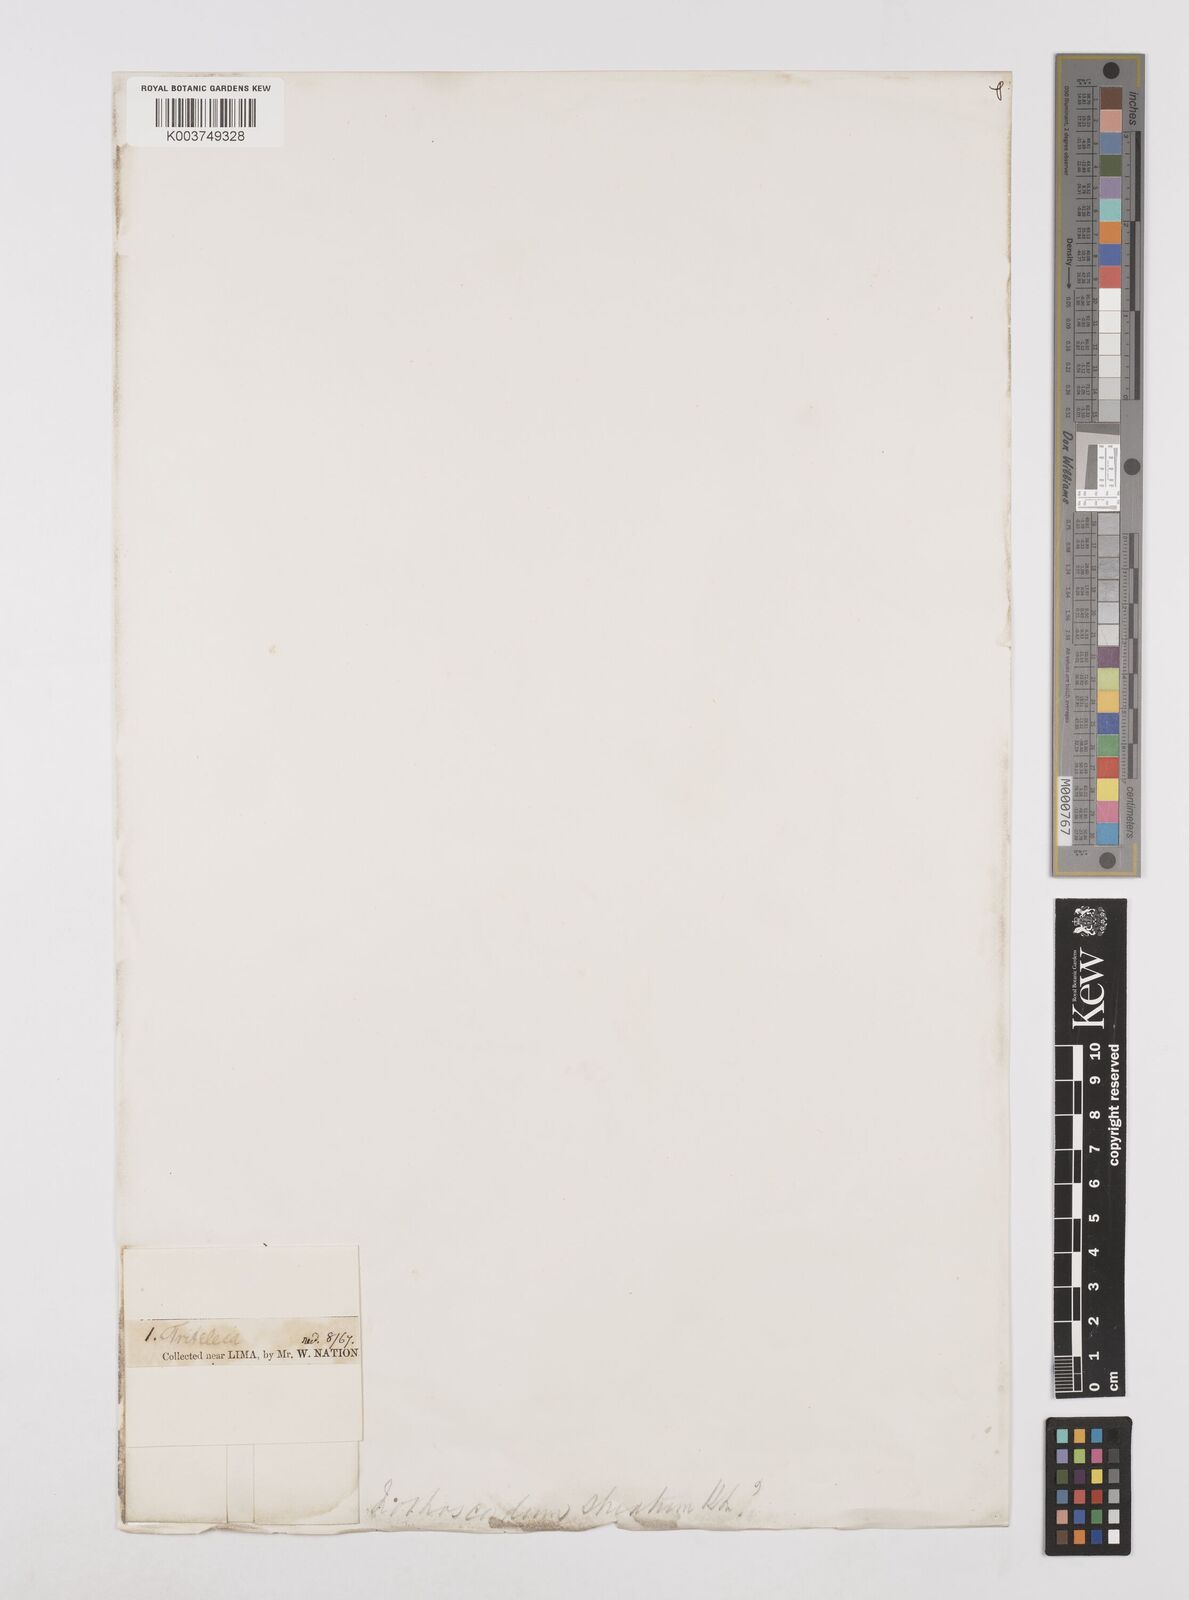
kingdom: Plantae
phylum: Tracheophyta
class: Liliopsida
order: Asparagales
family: Amaryllidaceae
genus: Nothoscordum
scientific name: Nothoscordum bivalve
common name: Crow-poison
